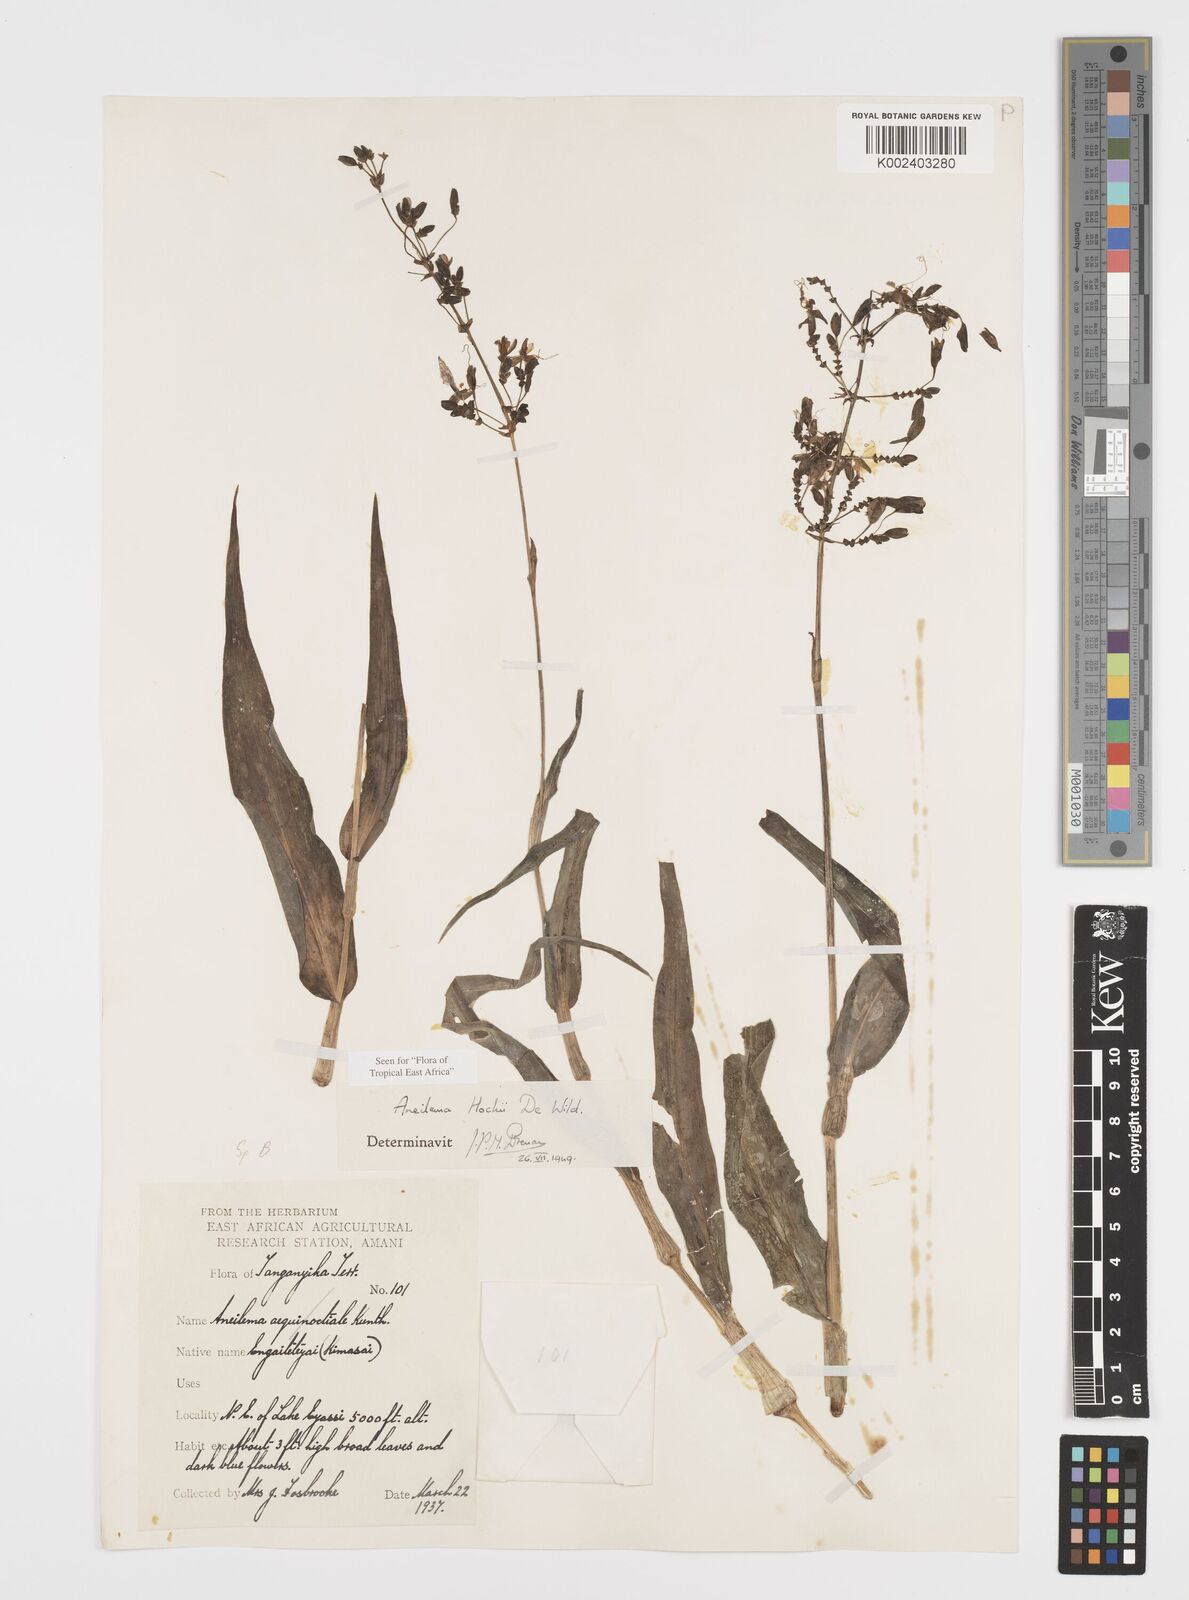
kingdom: Plantae
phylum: Tracheophyta
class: Liliopsida
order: Commelinales
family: Commelinaceae
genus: Aneilema
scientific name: Aneilema hockii
